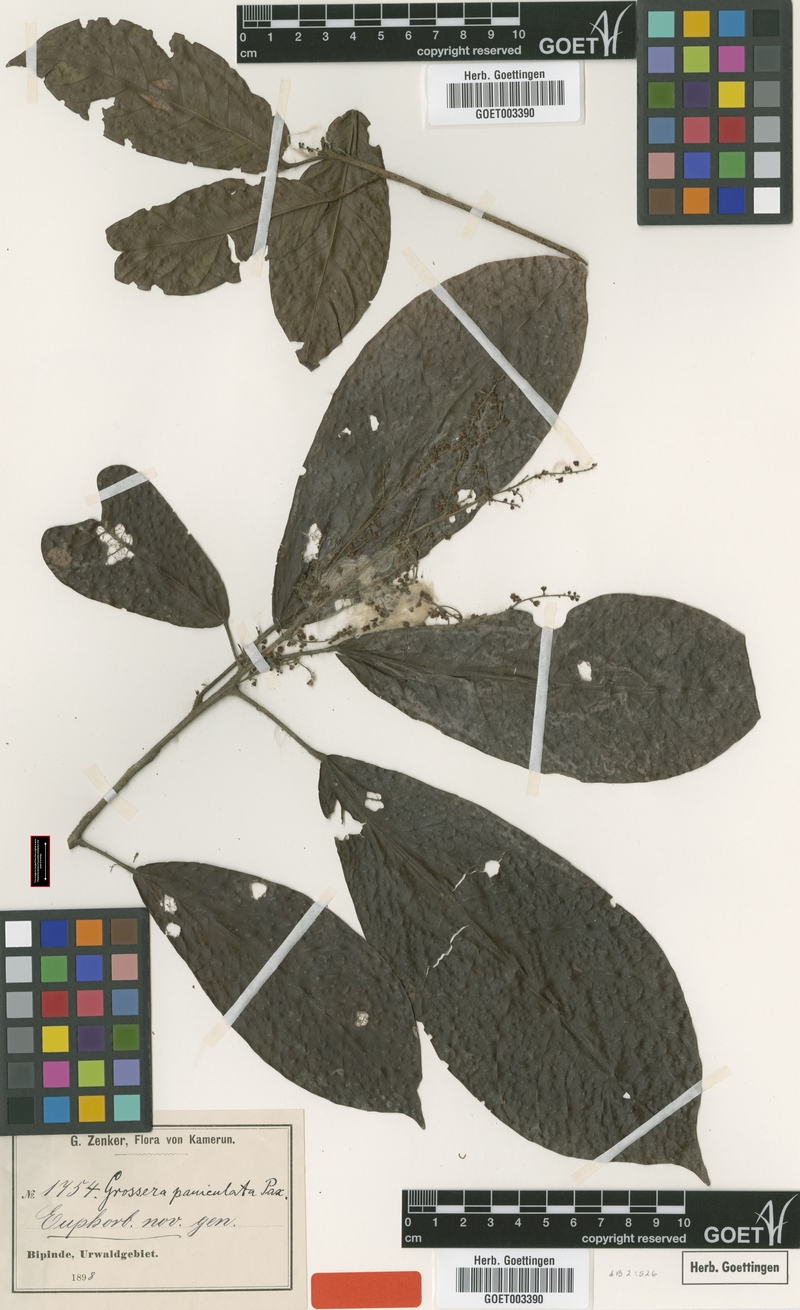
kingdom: Plantae
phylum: Tracheophyta
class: Magnoliopsida
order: Malpighiales
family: Euphorbiaceae
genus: Grossera
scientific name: Grossera paniculata
